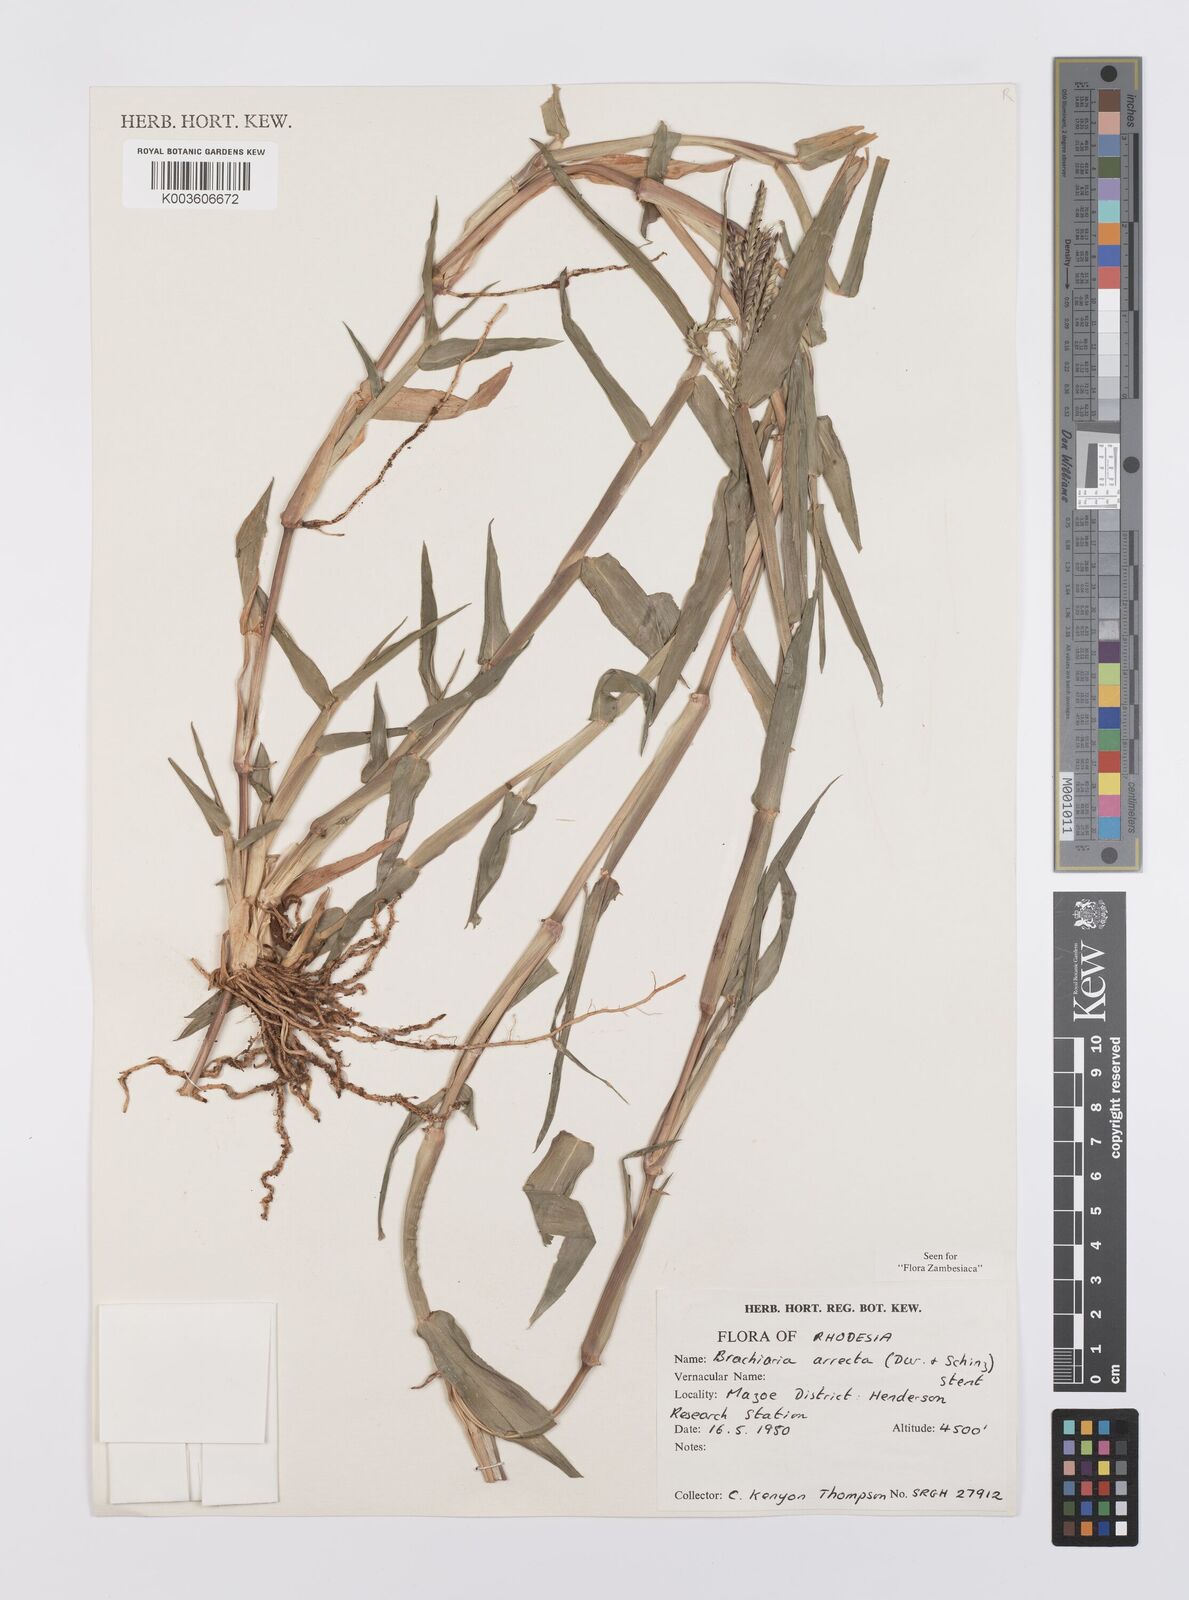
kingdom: Plantae
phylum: Tracheophyta
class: Liliopsida
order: Poales
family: Poaceae
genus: Urochloa
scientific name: Urochloa arrecta
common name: African signalgrass
